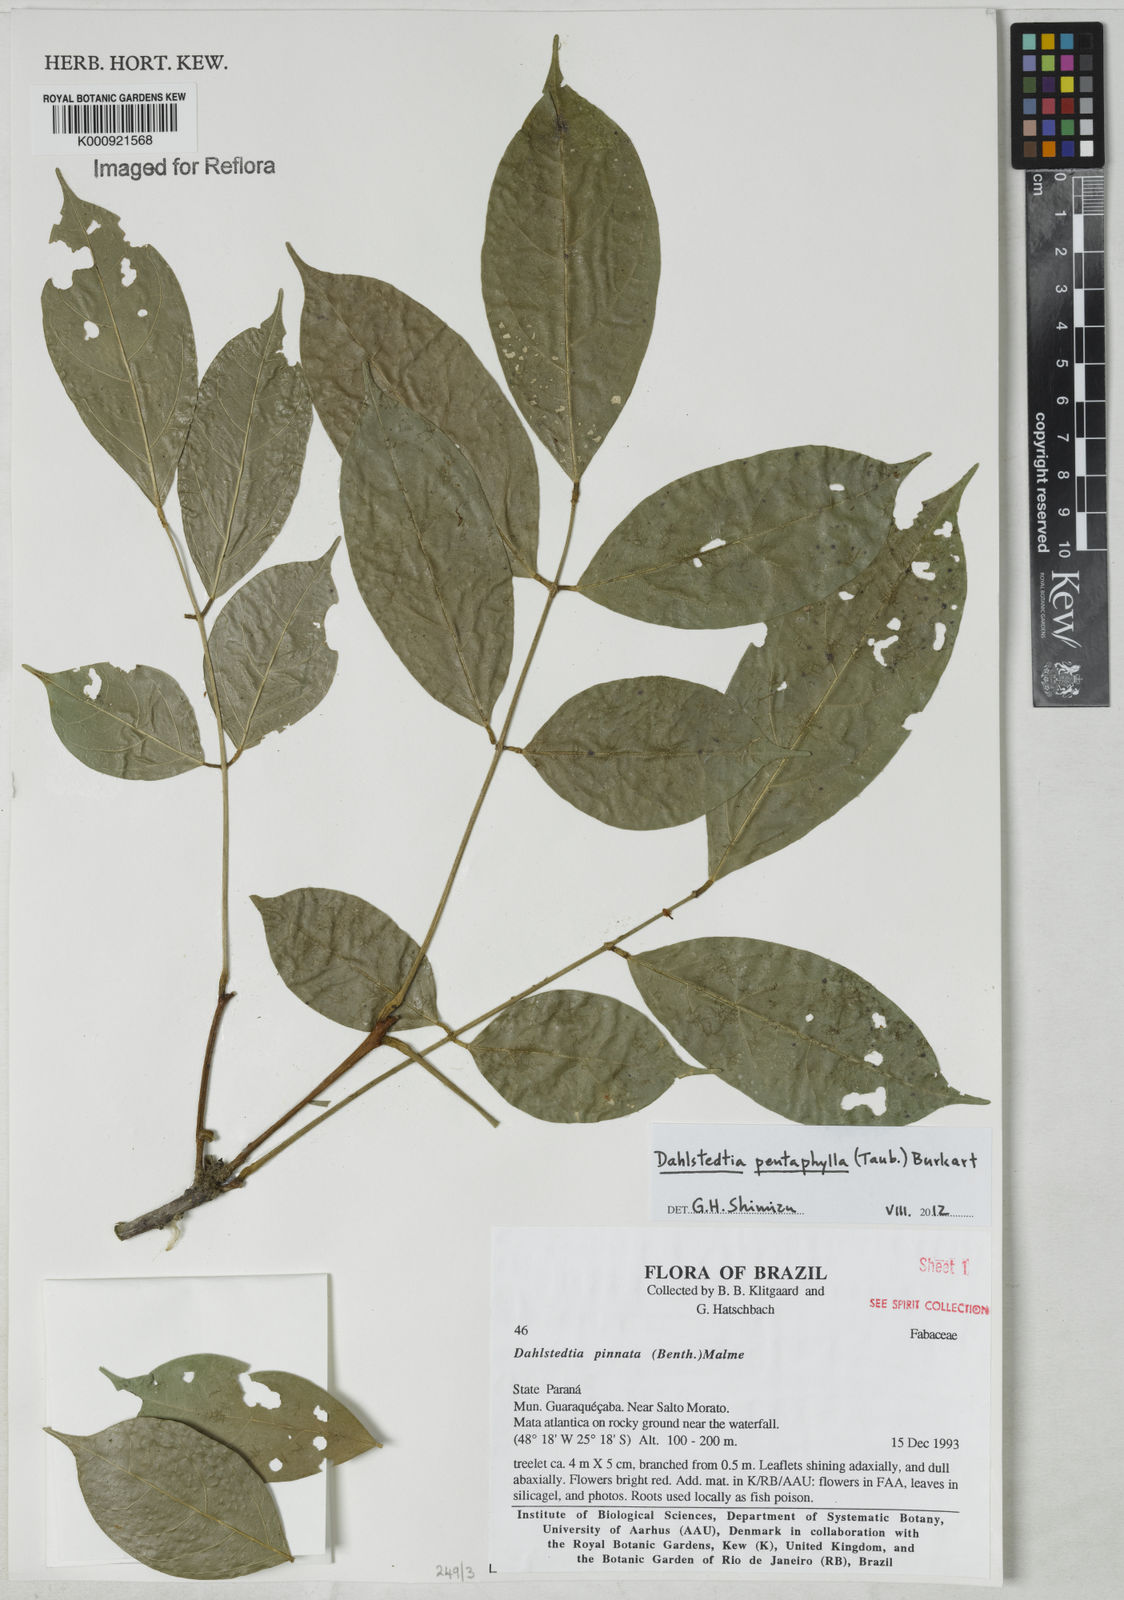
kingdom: Plantae
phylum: Tracheophyta
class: Magnoliopsida
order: Fabales
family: Fabaceae
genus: Dahlstedtia
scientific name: Dahlstedtia pentaphylla
